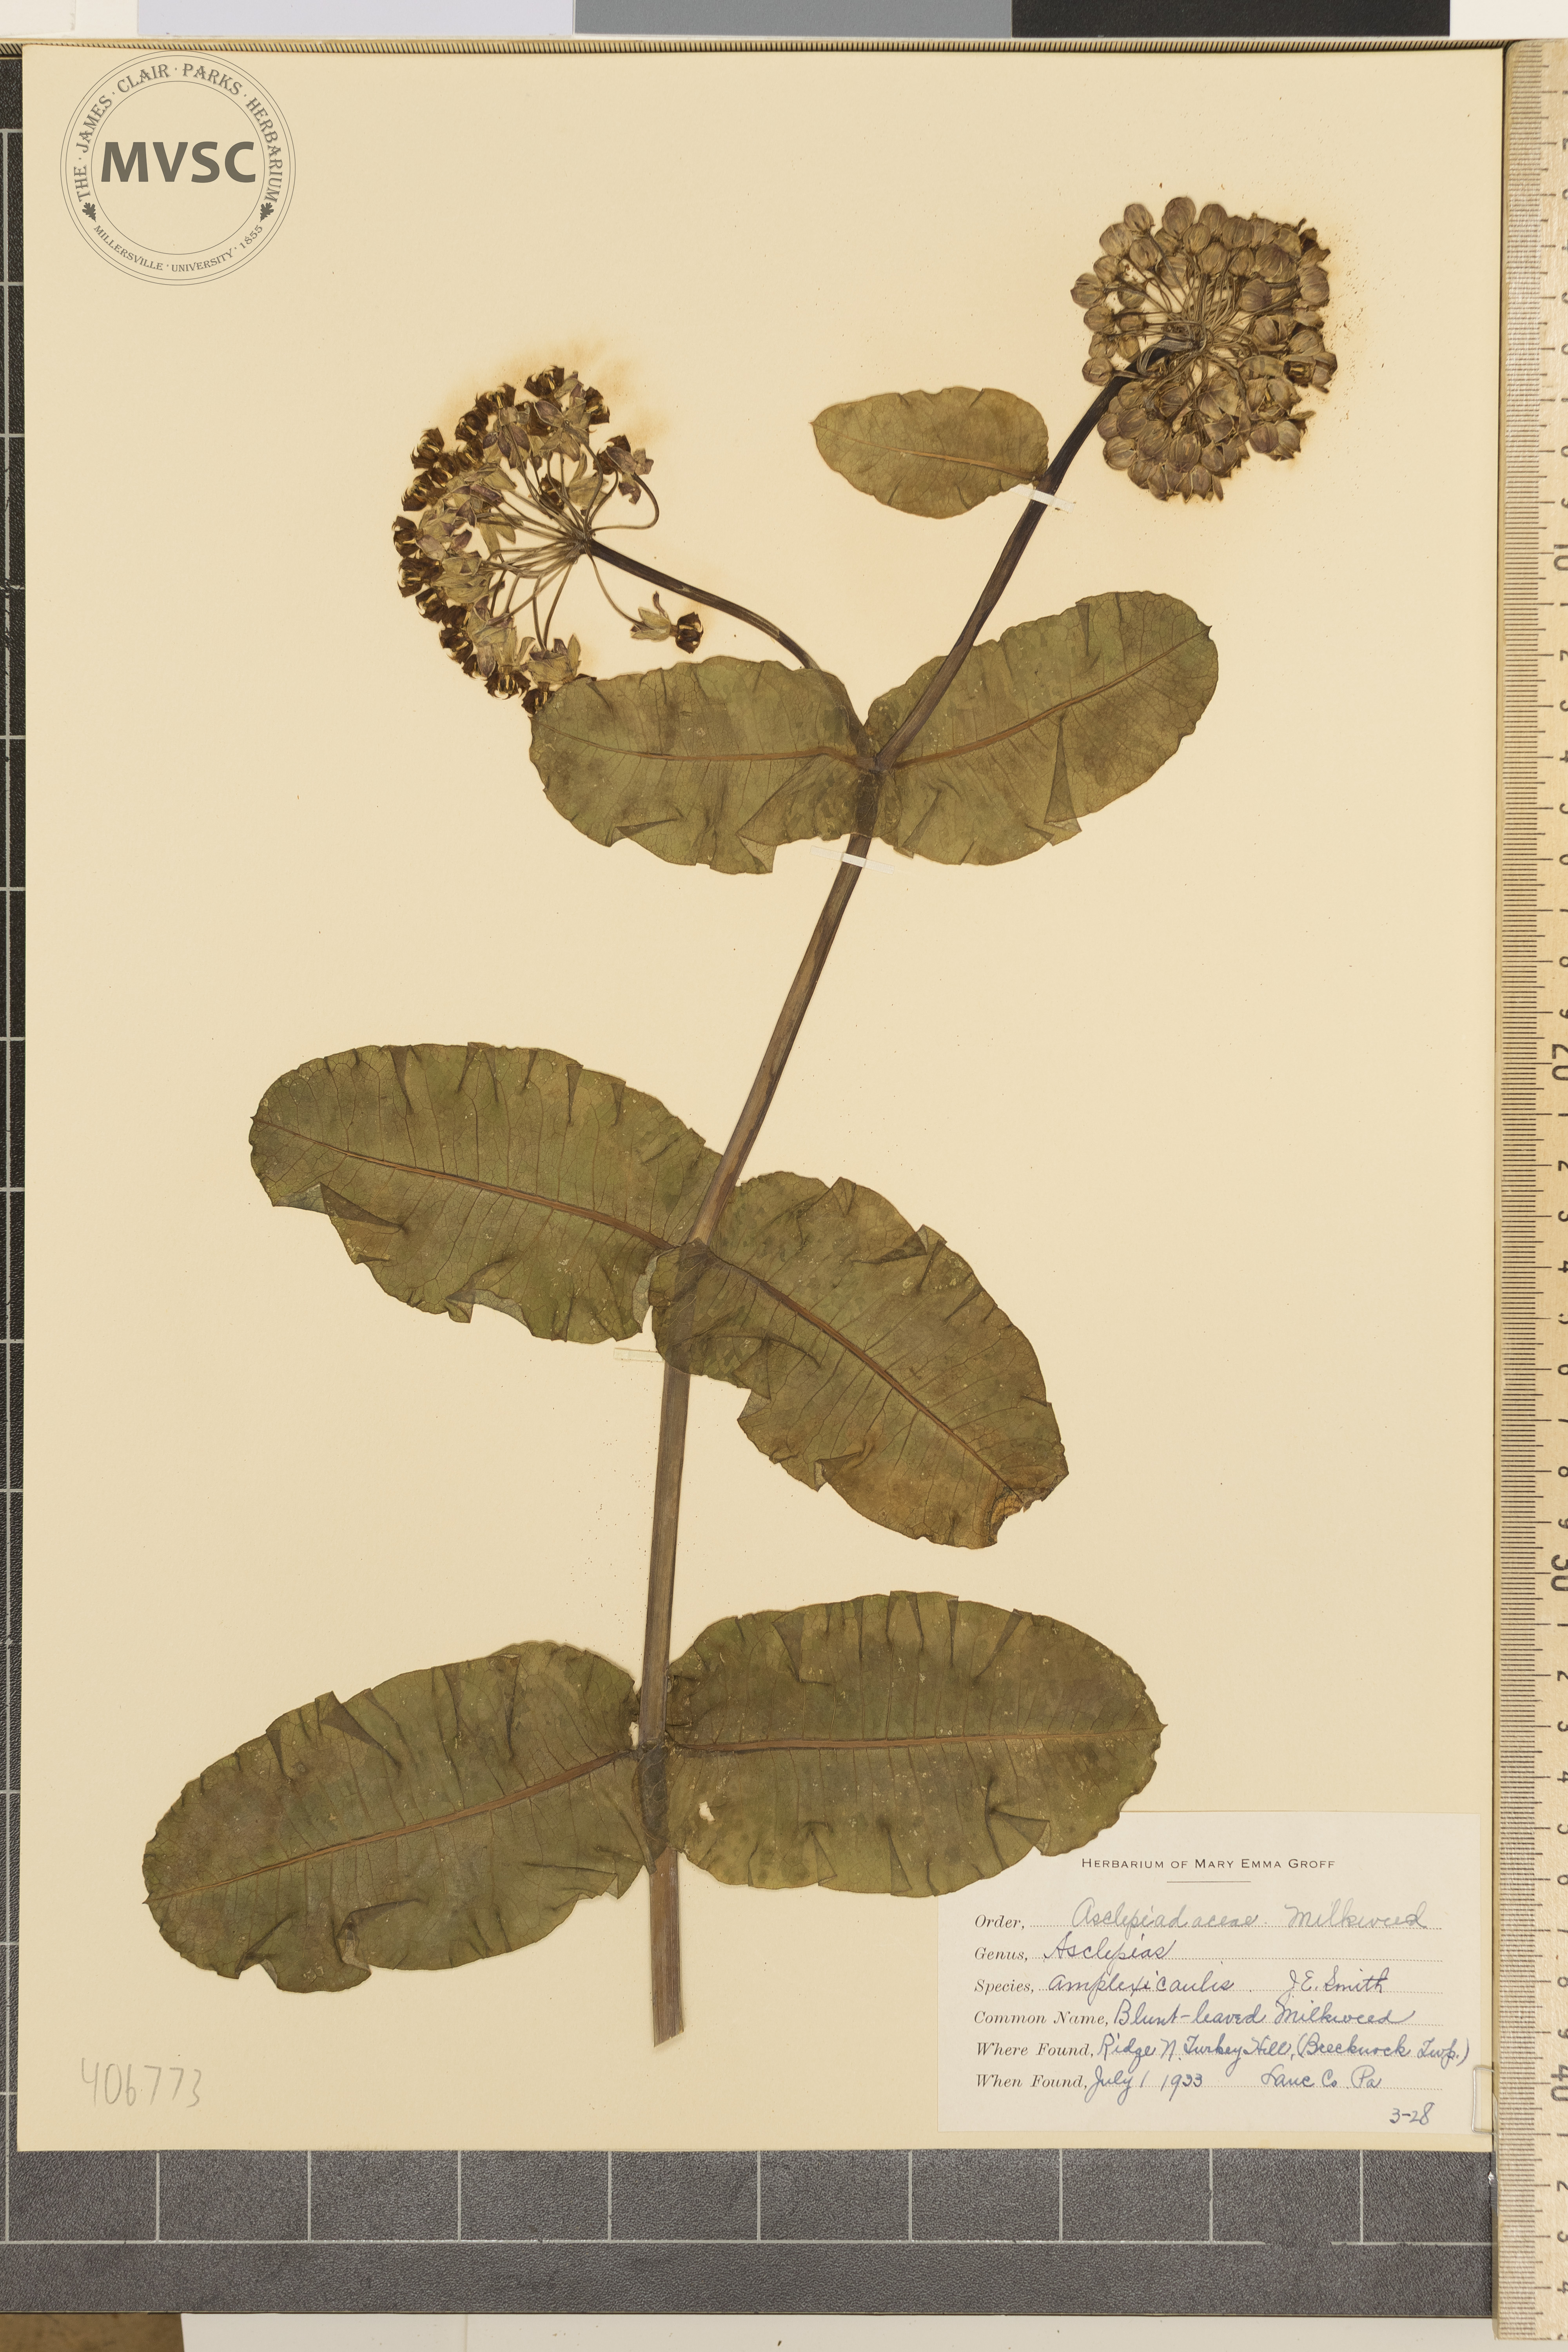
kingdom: Plantae
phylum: Tracheophyta
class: Magnoliopsida
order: Gentianales
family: Apocynaceae
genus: Asclepias
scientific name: Asclepias amplexicaulis
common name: Blunt-leaved Milkweed
